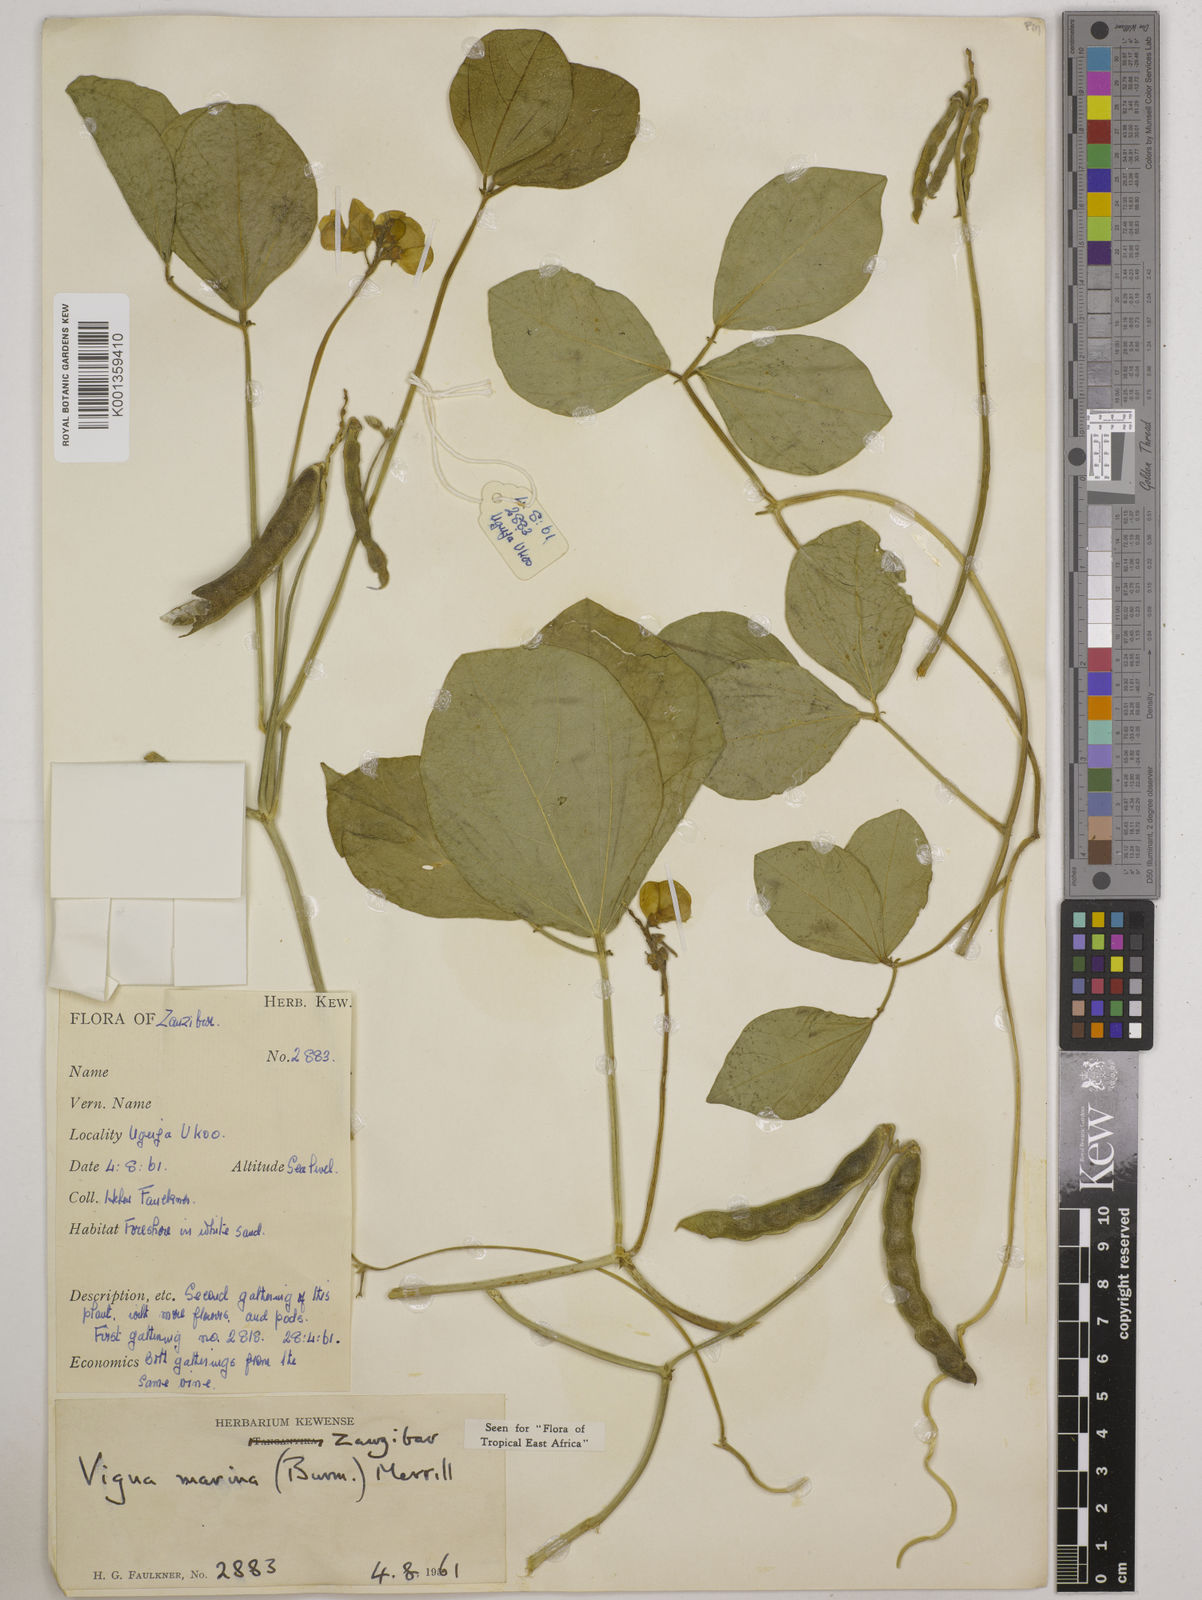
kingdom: Plantae
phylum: Tracheophyta
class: Magnoliopsida
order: Fabales
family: Fabaceae
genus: Vigna
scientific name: Vigna marina
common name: Dune-bean
